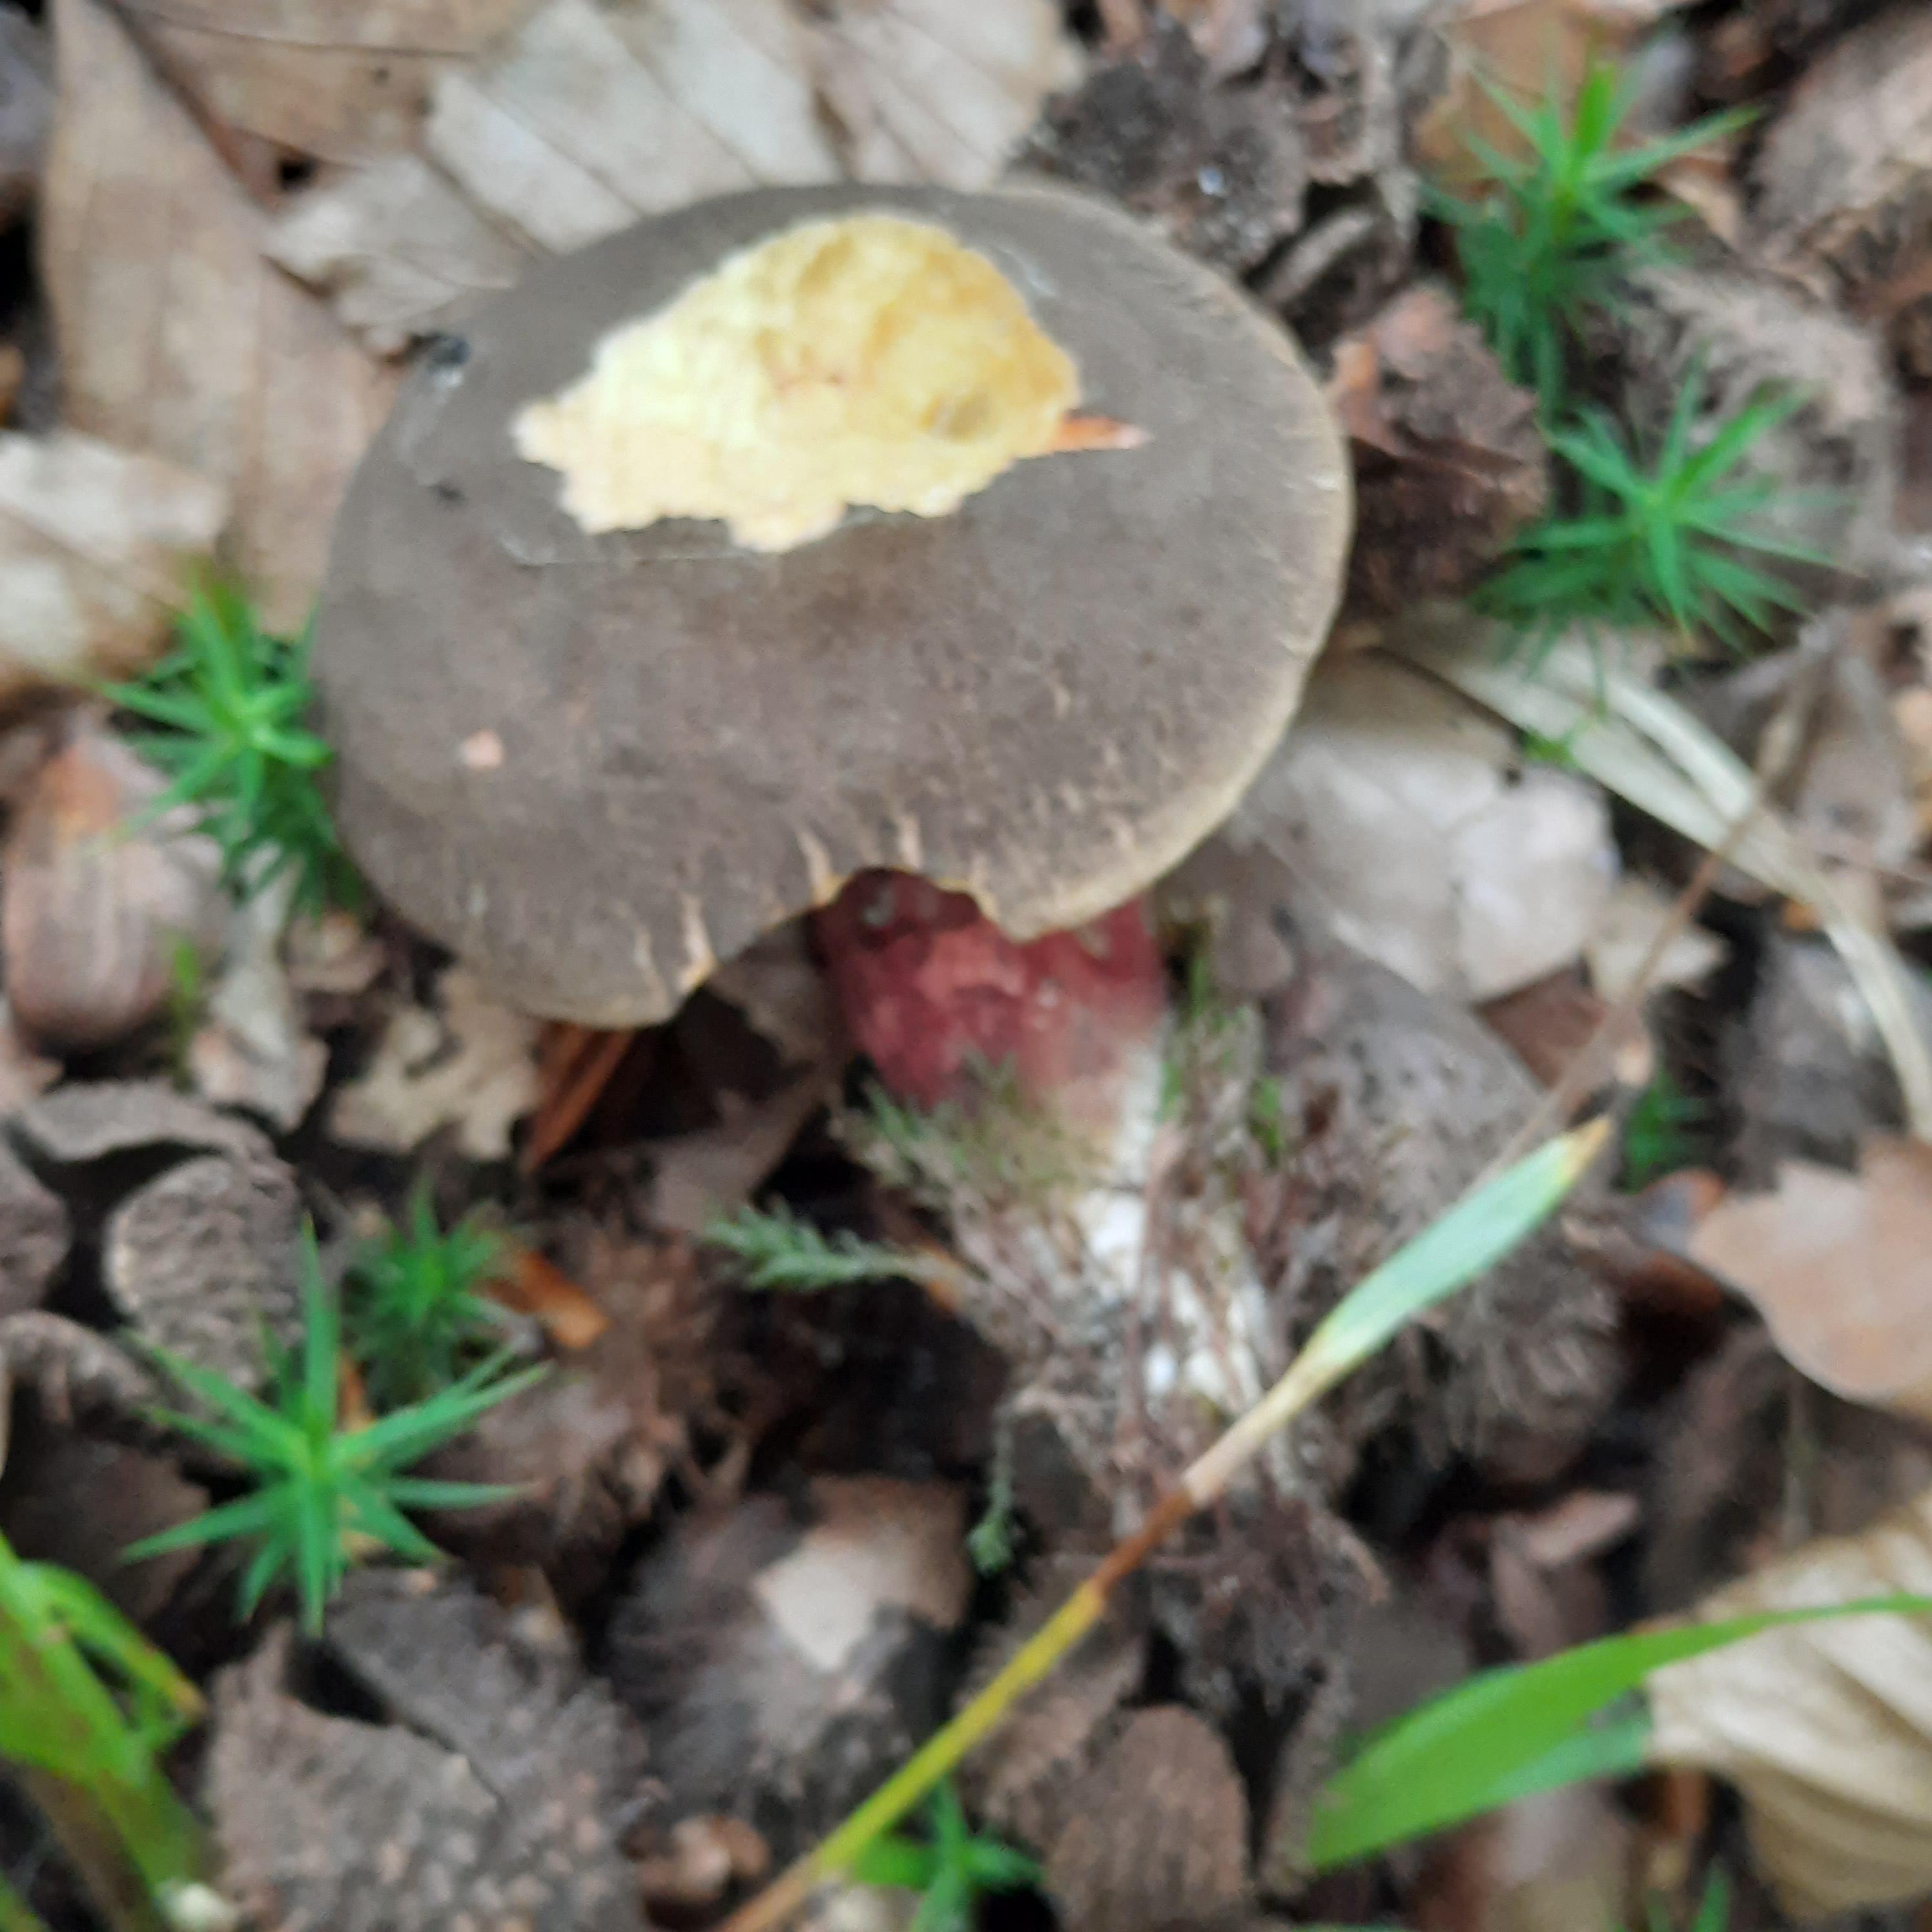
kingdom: Fungi
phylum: Basidiomycota
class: Agaricomycetes
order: Boletales
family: Boletaceae
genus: Xerocomellus
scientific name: Xerocomellus chrysenteron
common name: rødsprukken rørhat
